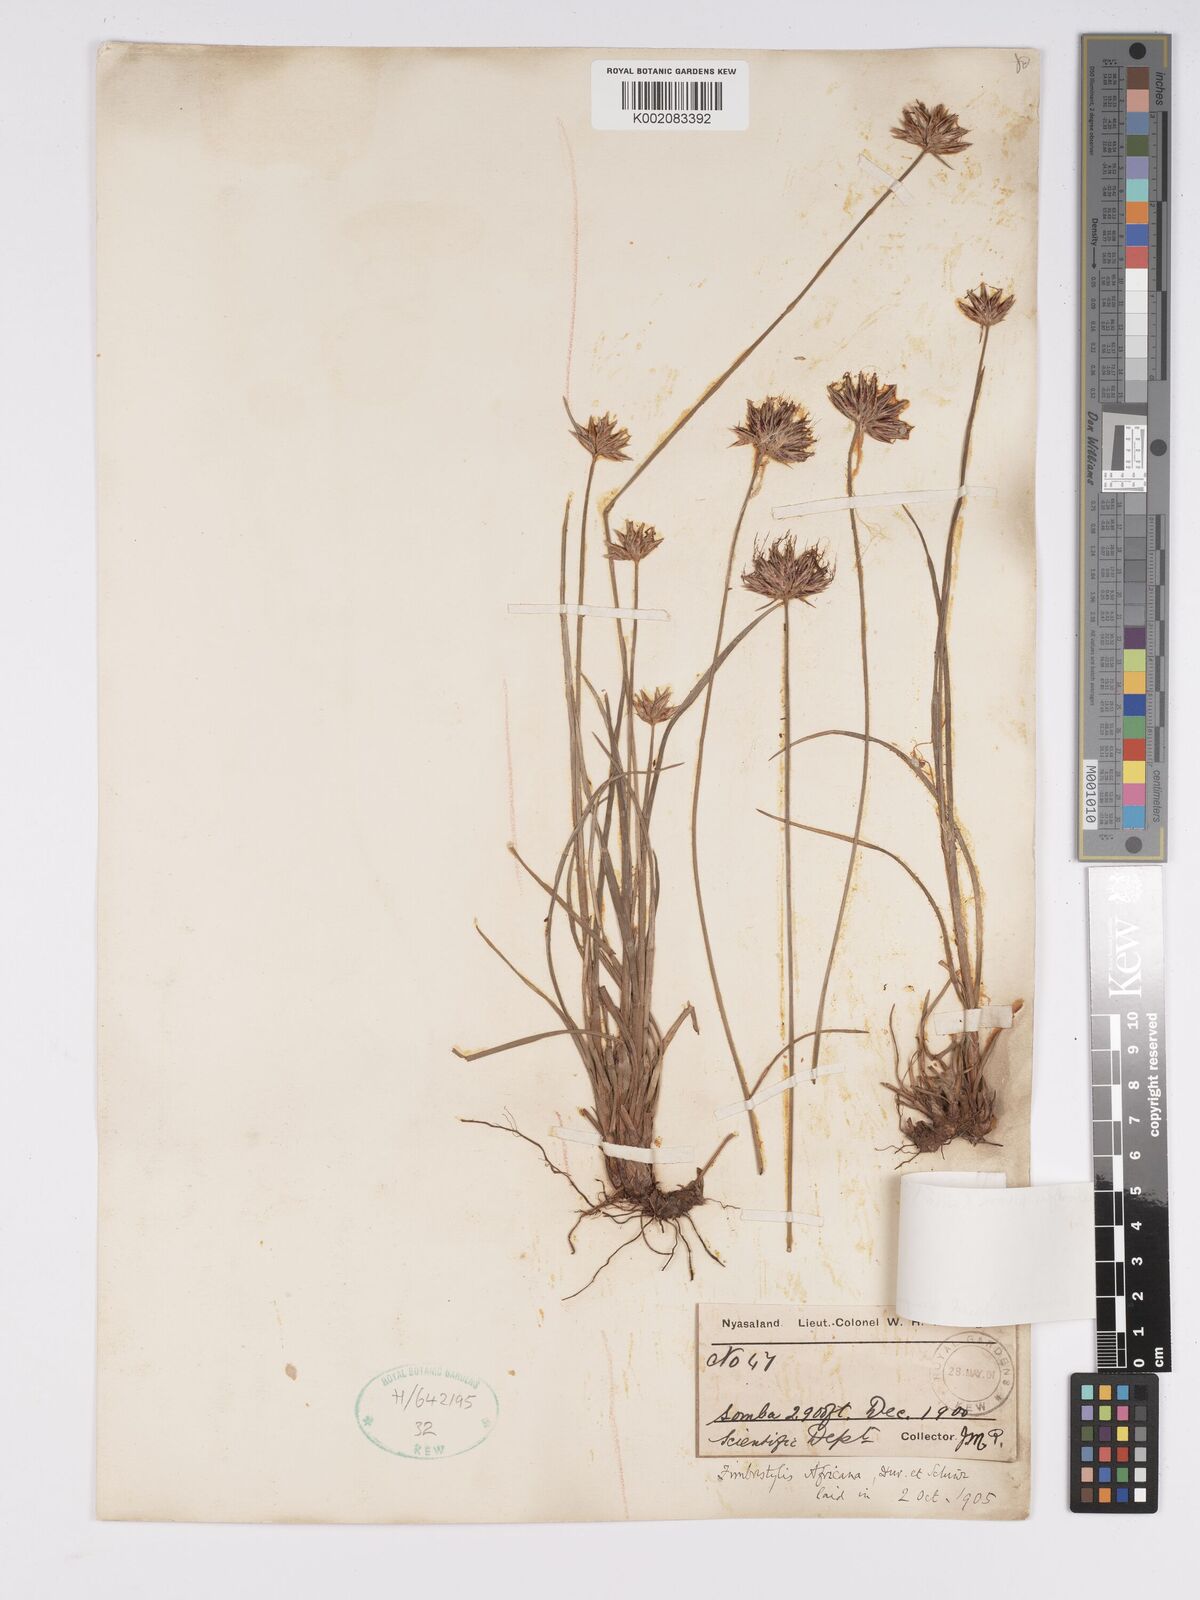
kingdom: Plantae
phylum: Tracheophyta
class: Liliopsida
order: Poales
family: Cyperaceae
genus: Bulbostylis
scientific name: Bulbostylis pilosa
